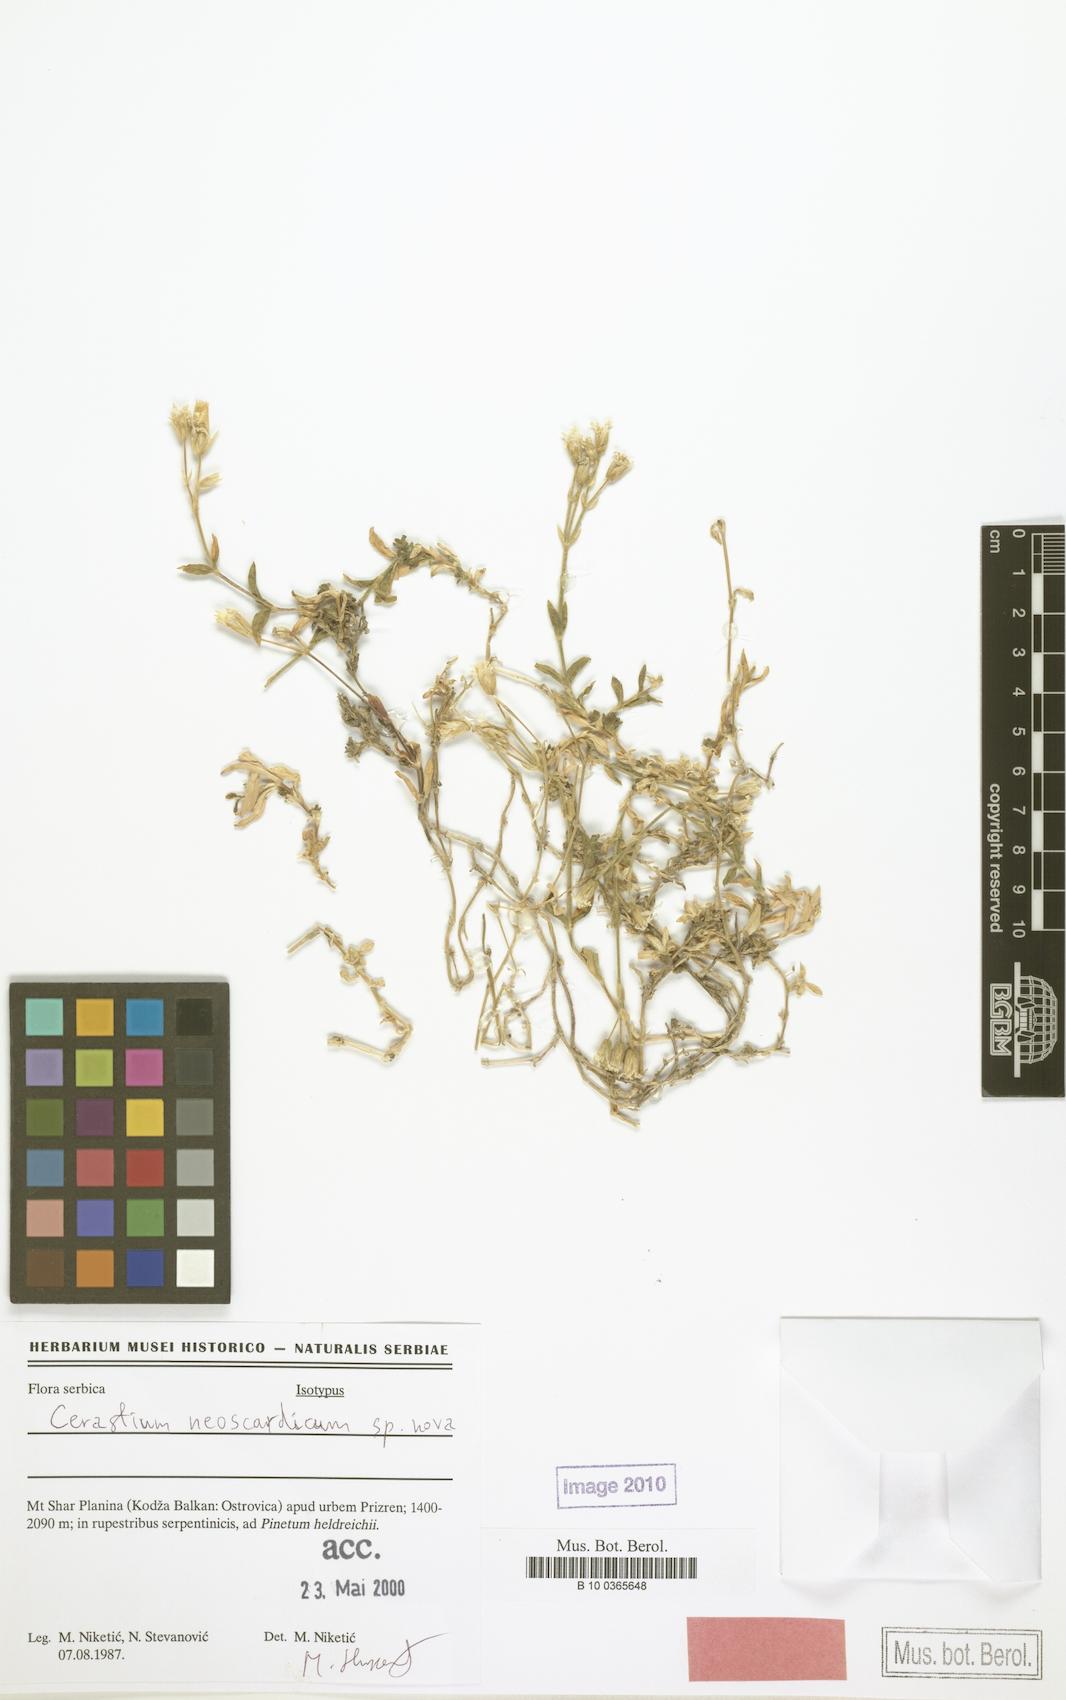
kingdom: Plantae
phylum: Tracheophyta
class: Magnoliopsida
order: Caryophyllales
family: Caryophyllaceae
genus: Cerastium
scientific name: Cerastium neoscardicum
